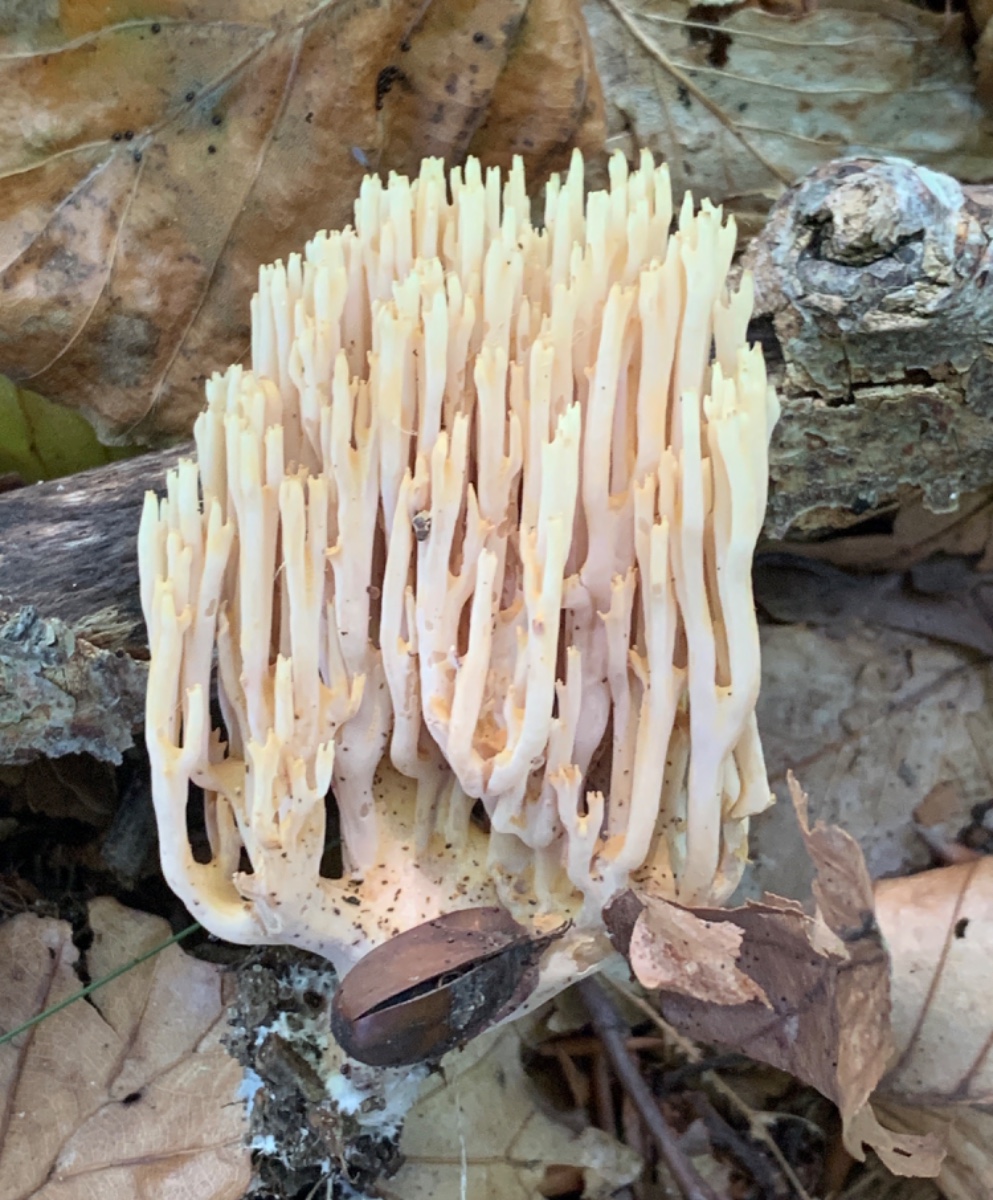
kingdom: Fungi
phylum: Basidiomycota
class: Agaricomycetes
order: Gomphales
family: Gomphaceae
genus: Ramaria
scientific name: Ramaria stricta
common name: rank koralsvamp
